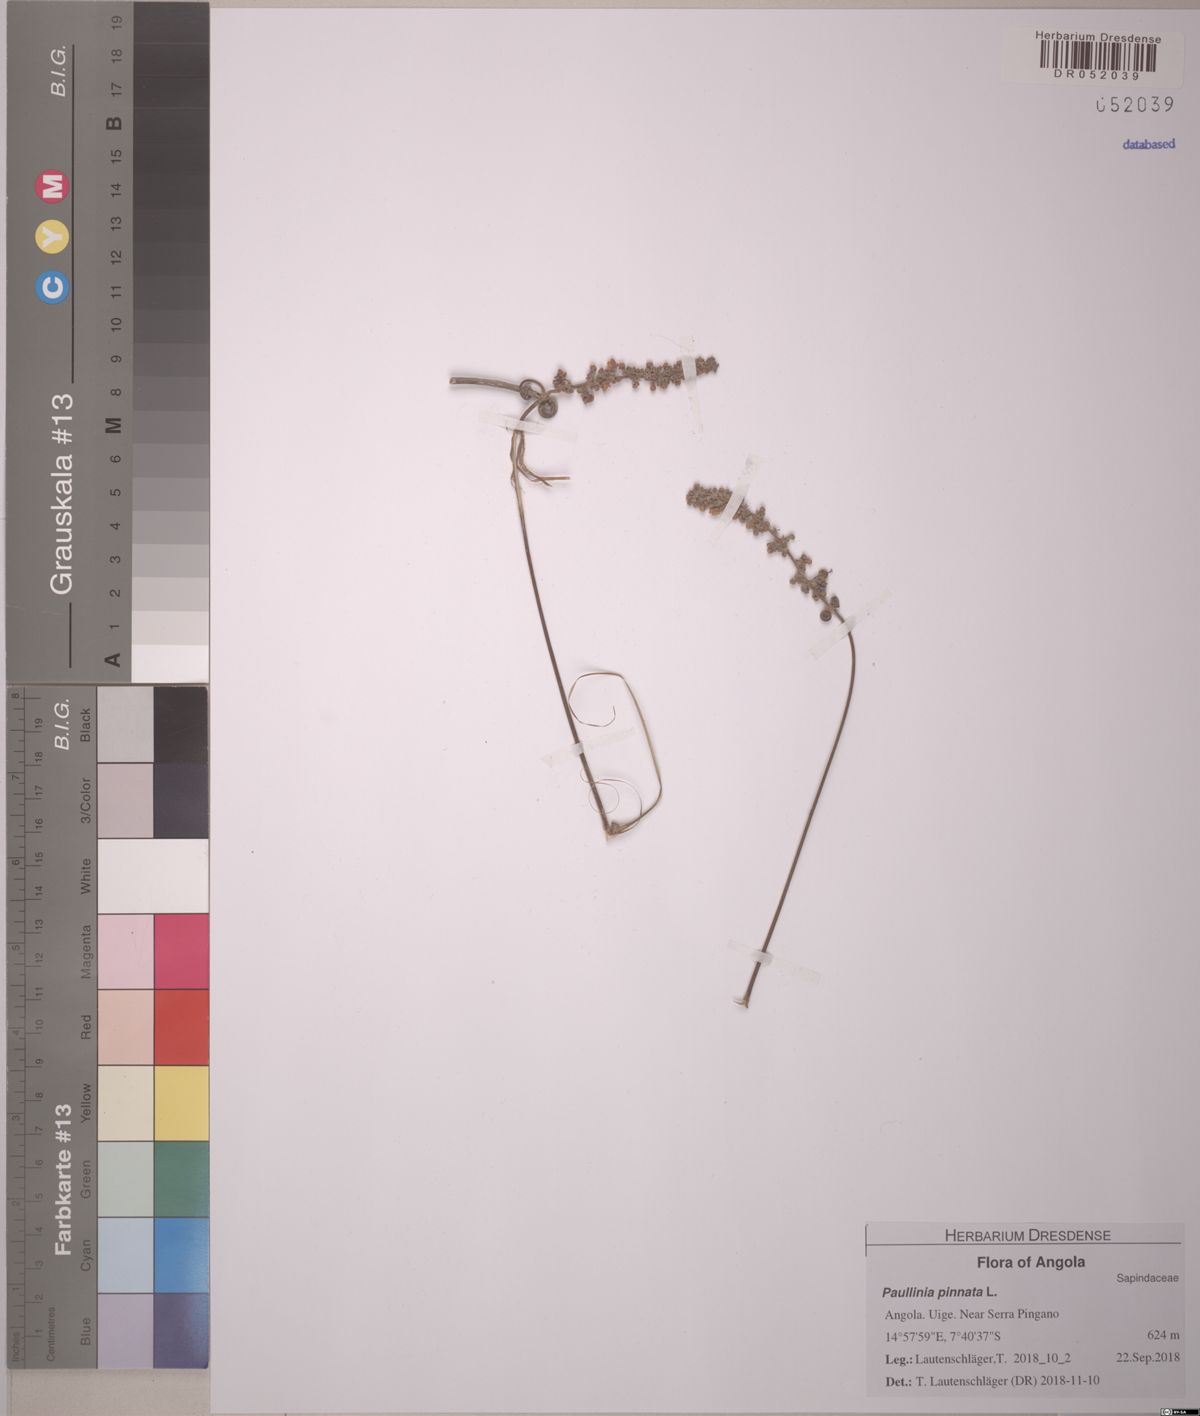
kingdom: Plantae
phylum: Tracheophyta
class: Magnoliopsida
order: Sapindales
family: Sapindaceae
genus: Paullinia
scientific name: Paullinia pinnata
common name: Barbasco
